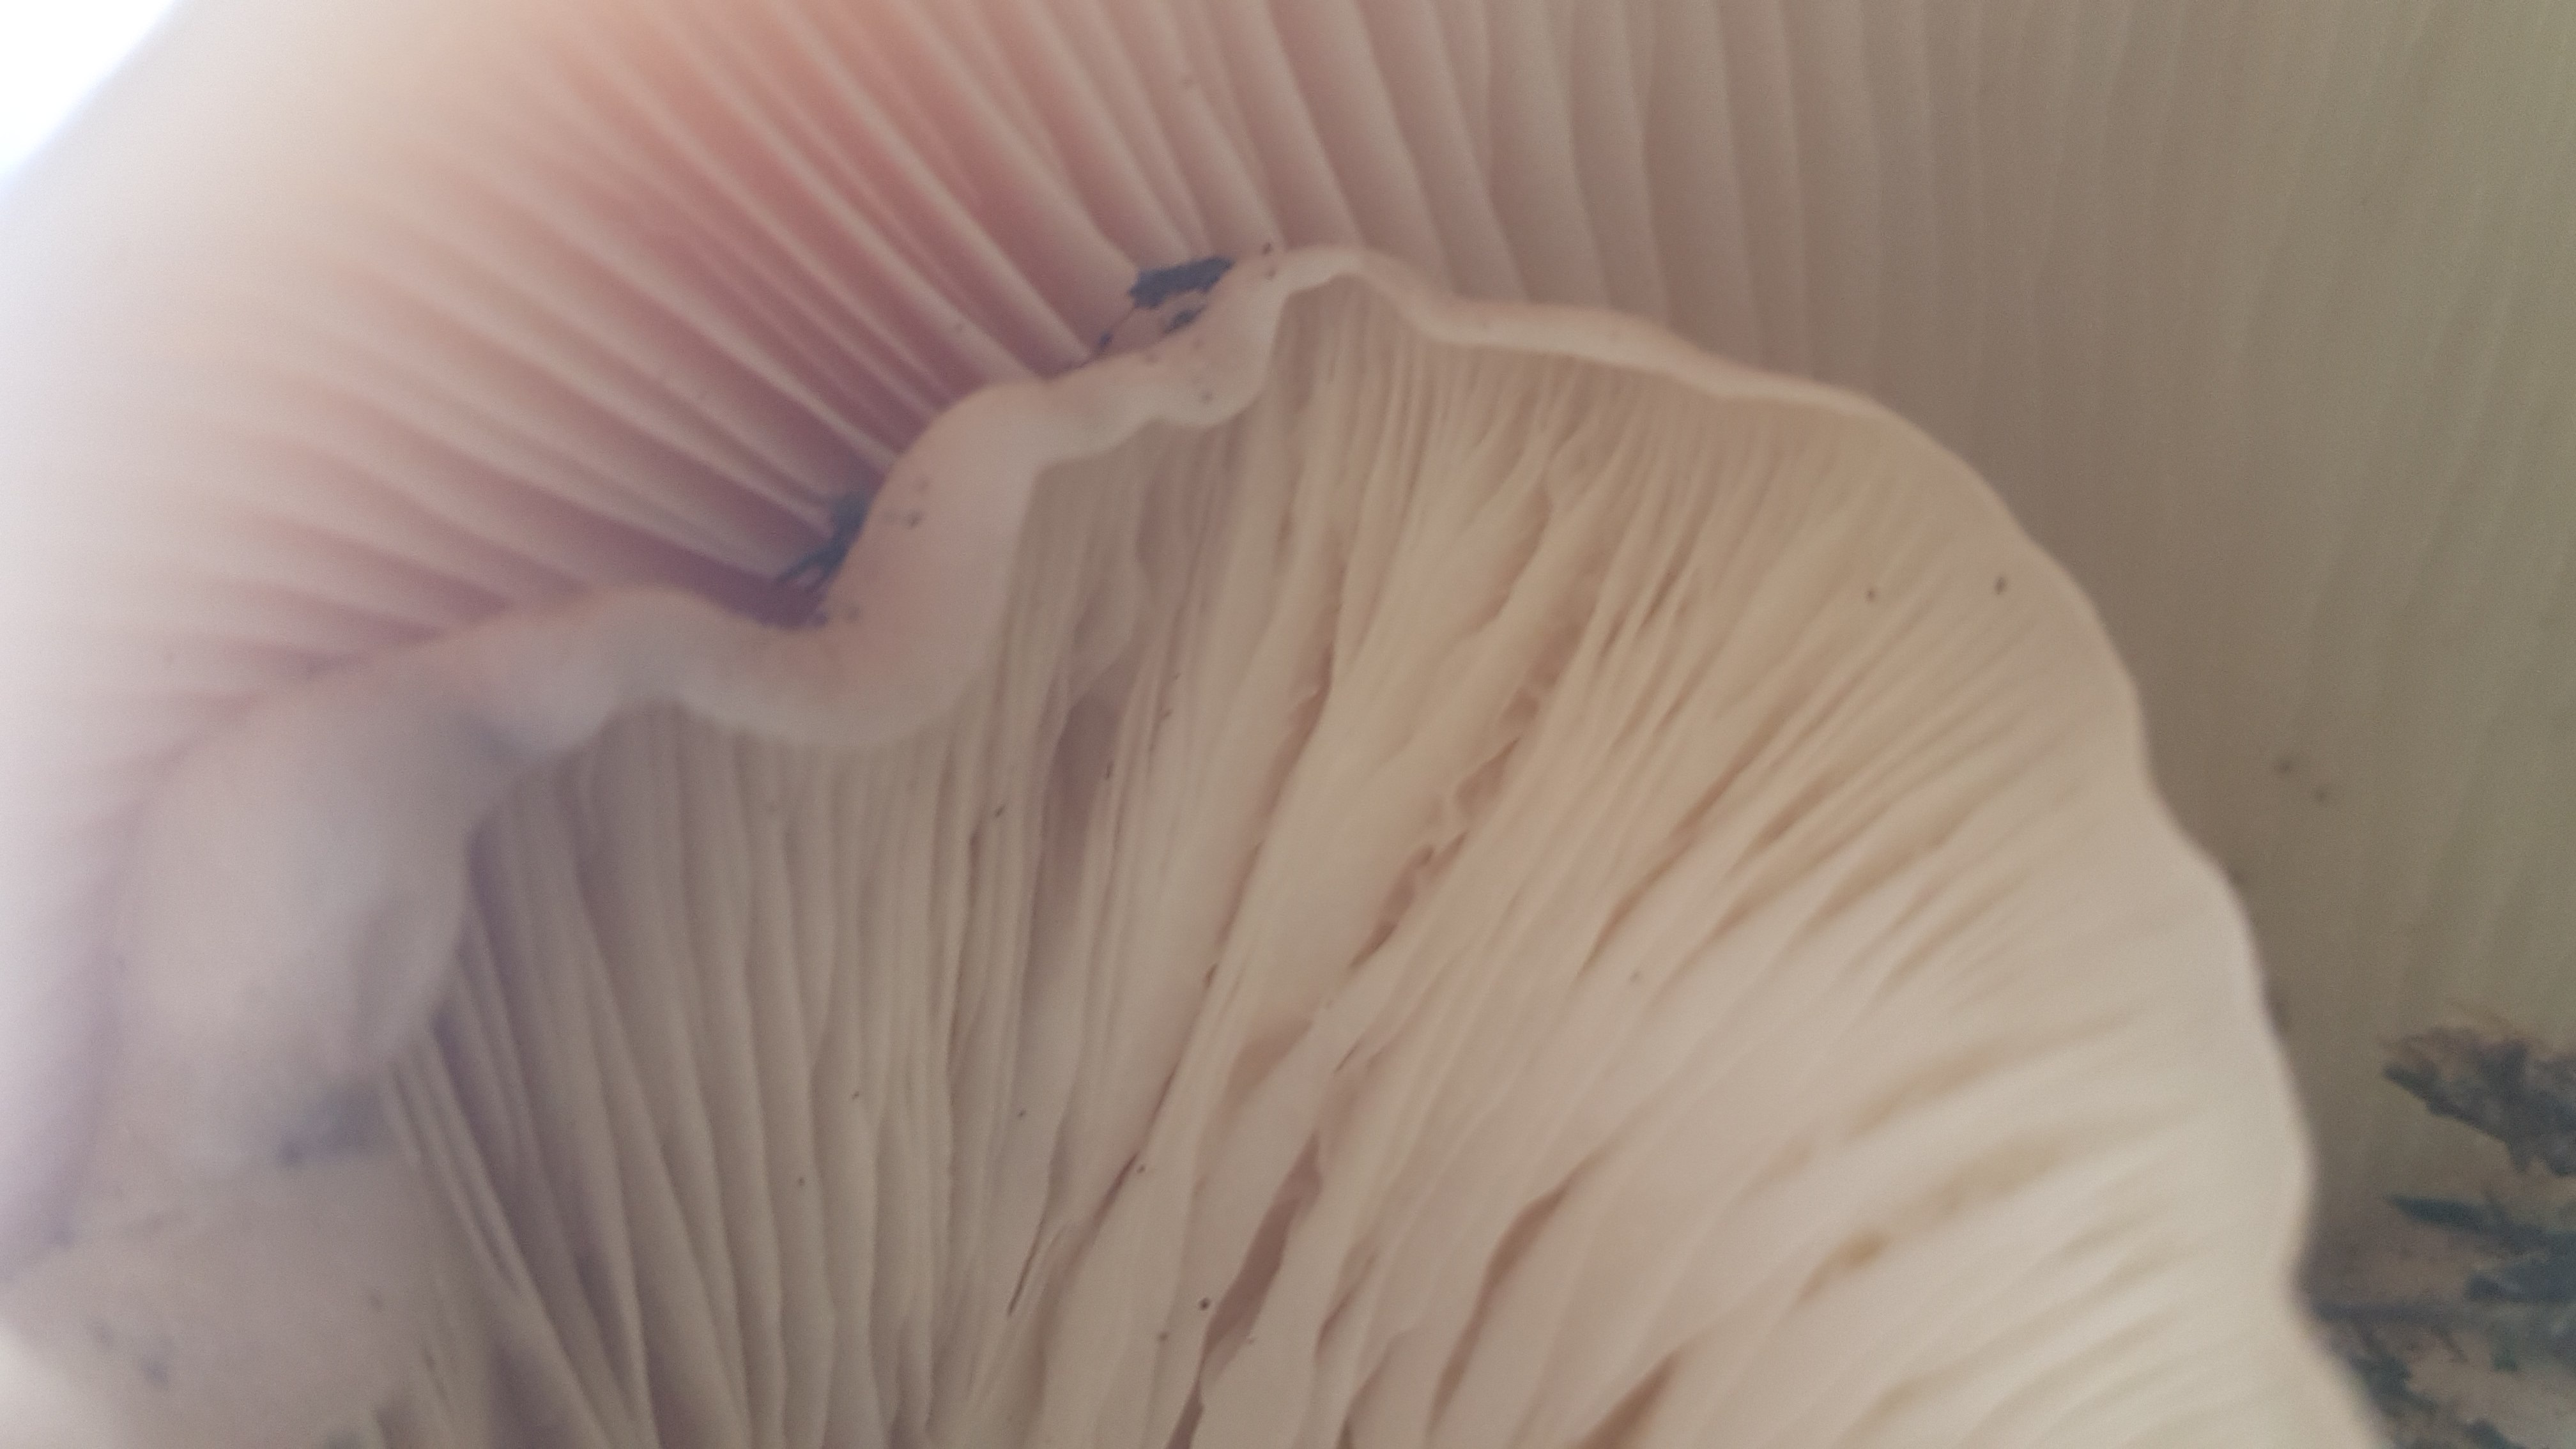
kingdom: Fungi
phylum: Basidiomycota
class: Agaricomycetes
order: Agaricales
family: Tricholomataceae
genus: Clitocybe
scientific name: Clitocybe nebularis
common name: tåge-tragthat
